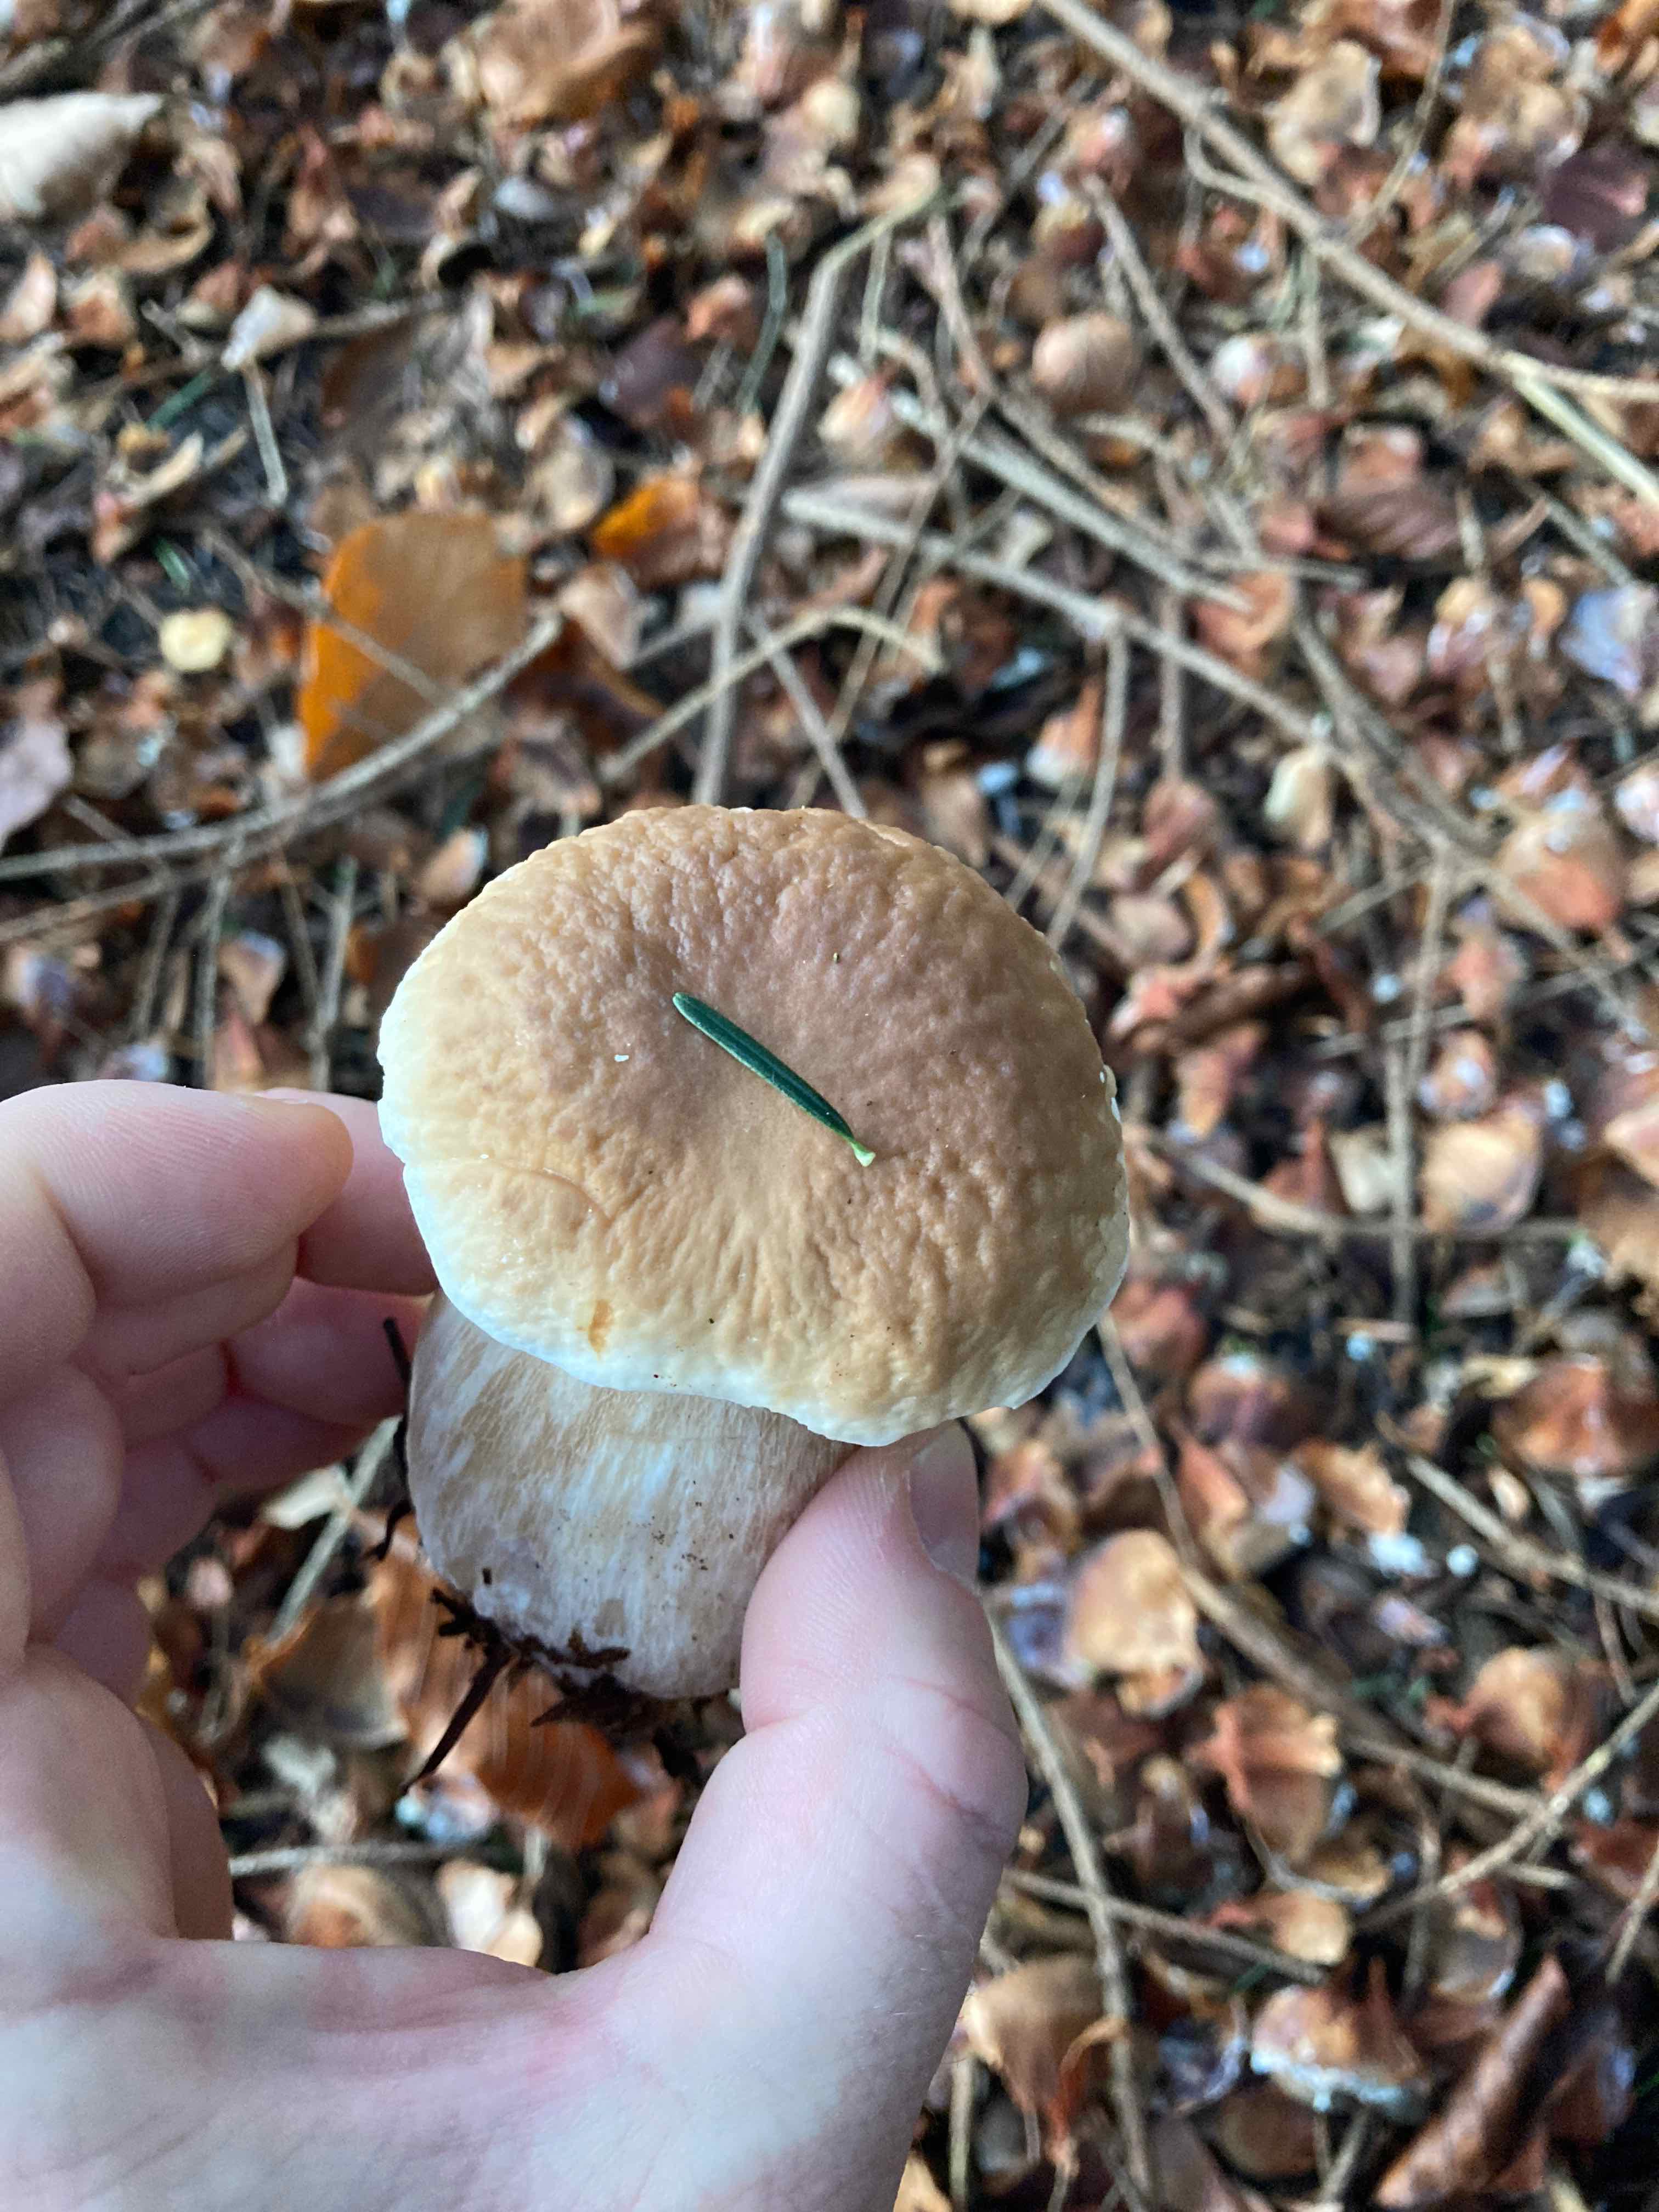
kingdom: Fungi
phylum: Basidiomycota
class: Agaricomycetes
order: Boletales
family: Boletaceae
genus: Boletus
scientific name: Boletus edulis
